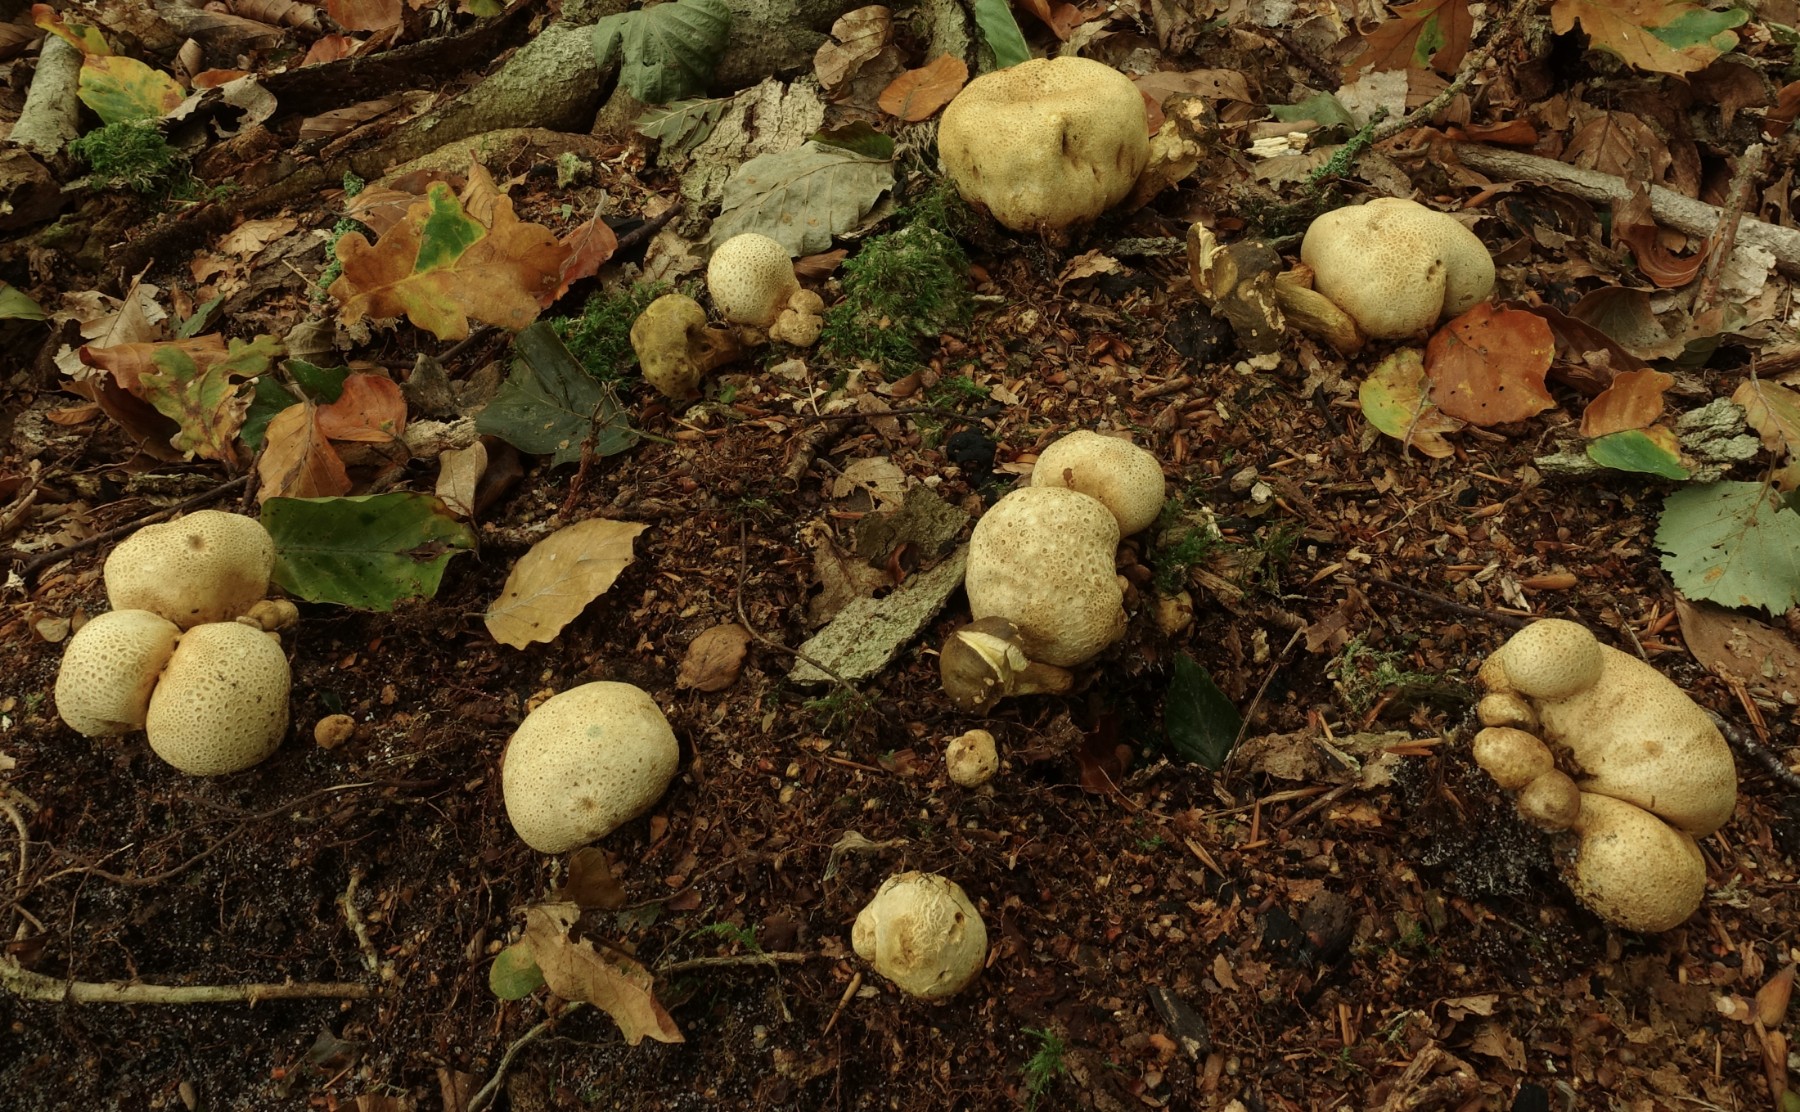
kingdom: Fungi
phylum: Basidiomycota
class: Agaricomycetes
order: Boletales
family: Boletaceae
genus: Pseudoboletus
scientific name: Pseudoboletus parasiticus
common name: snyltende rørhat
